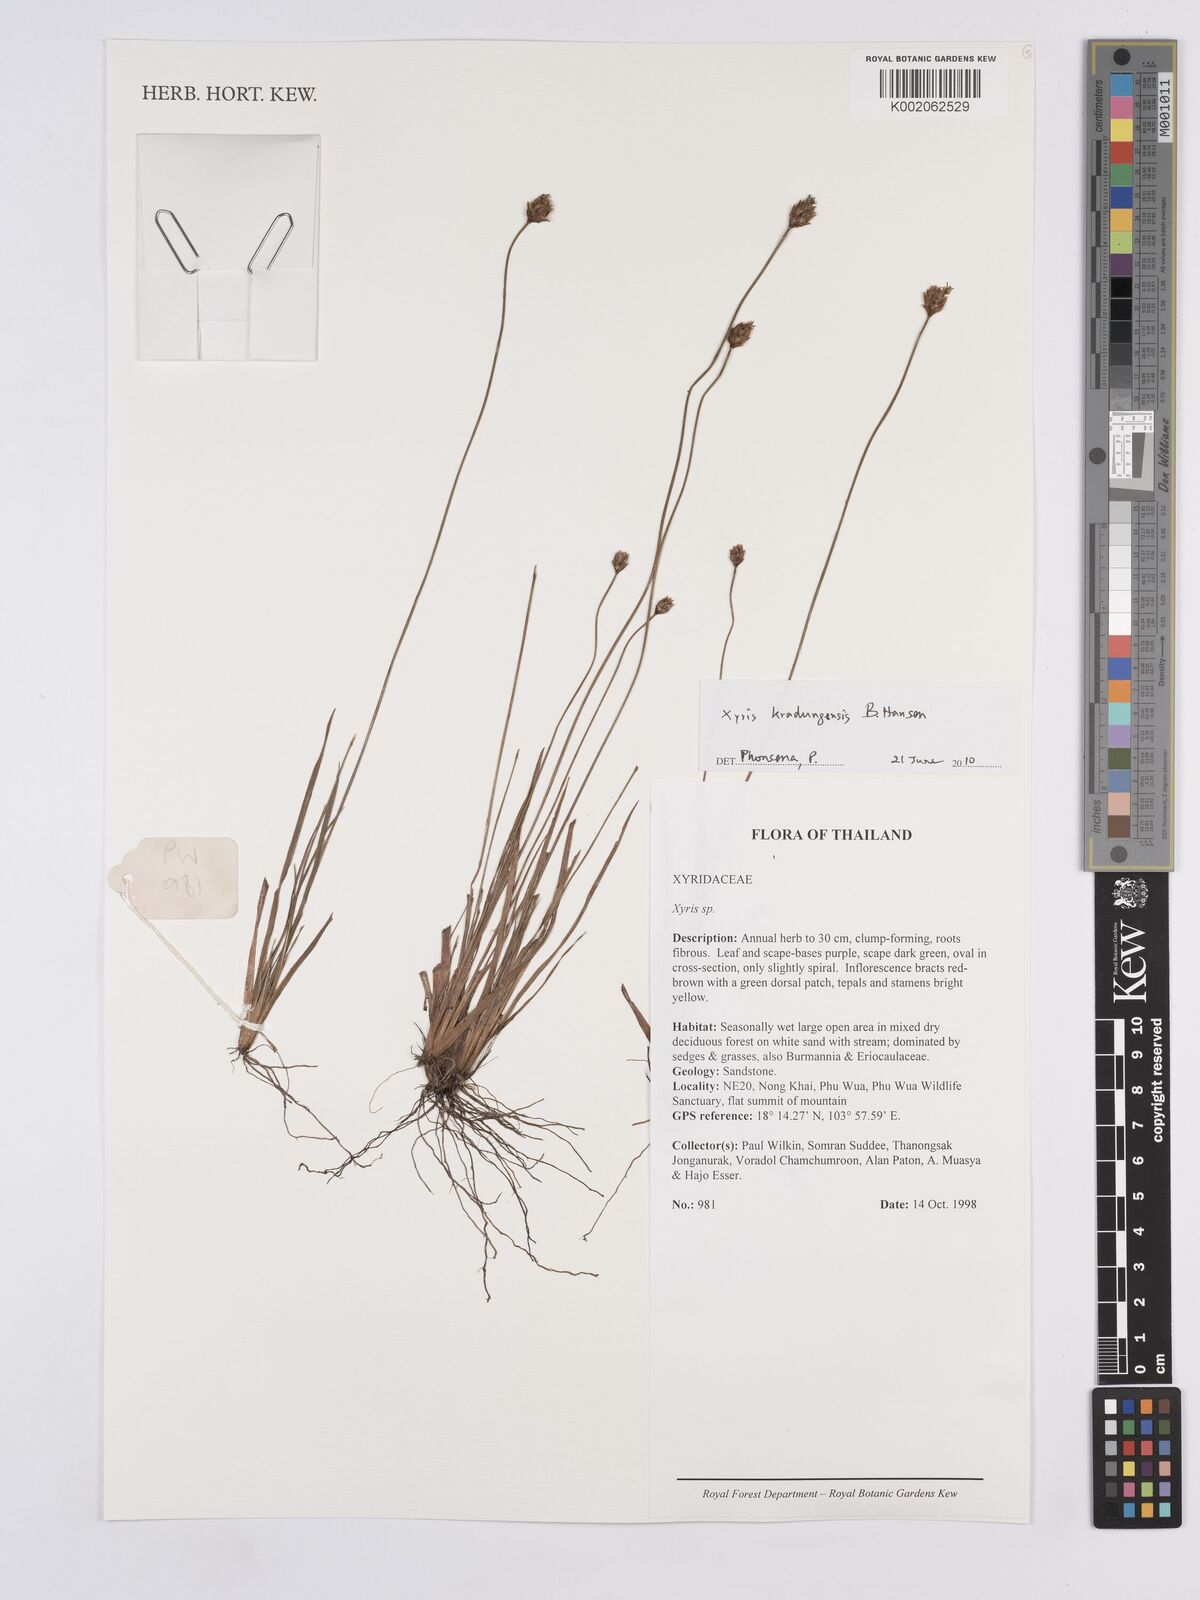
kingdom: Plantae
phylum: Tracheophyta
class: Liliopsida
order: Poales
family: Xyridaceae
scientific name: Xyridaceae
